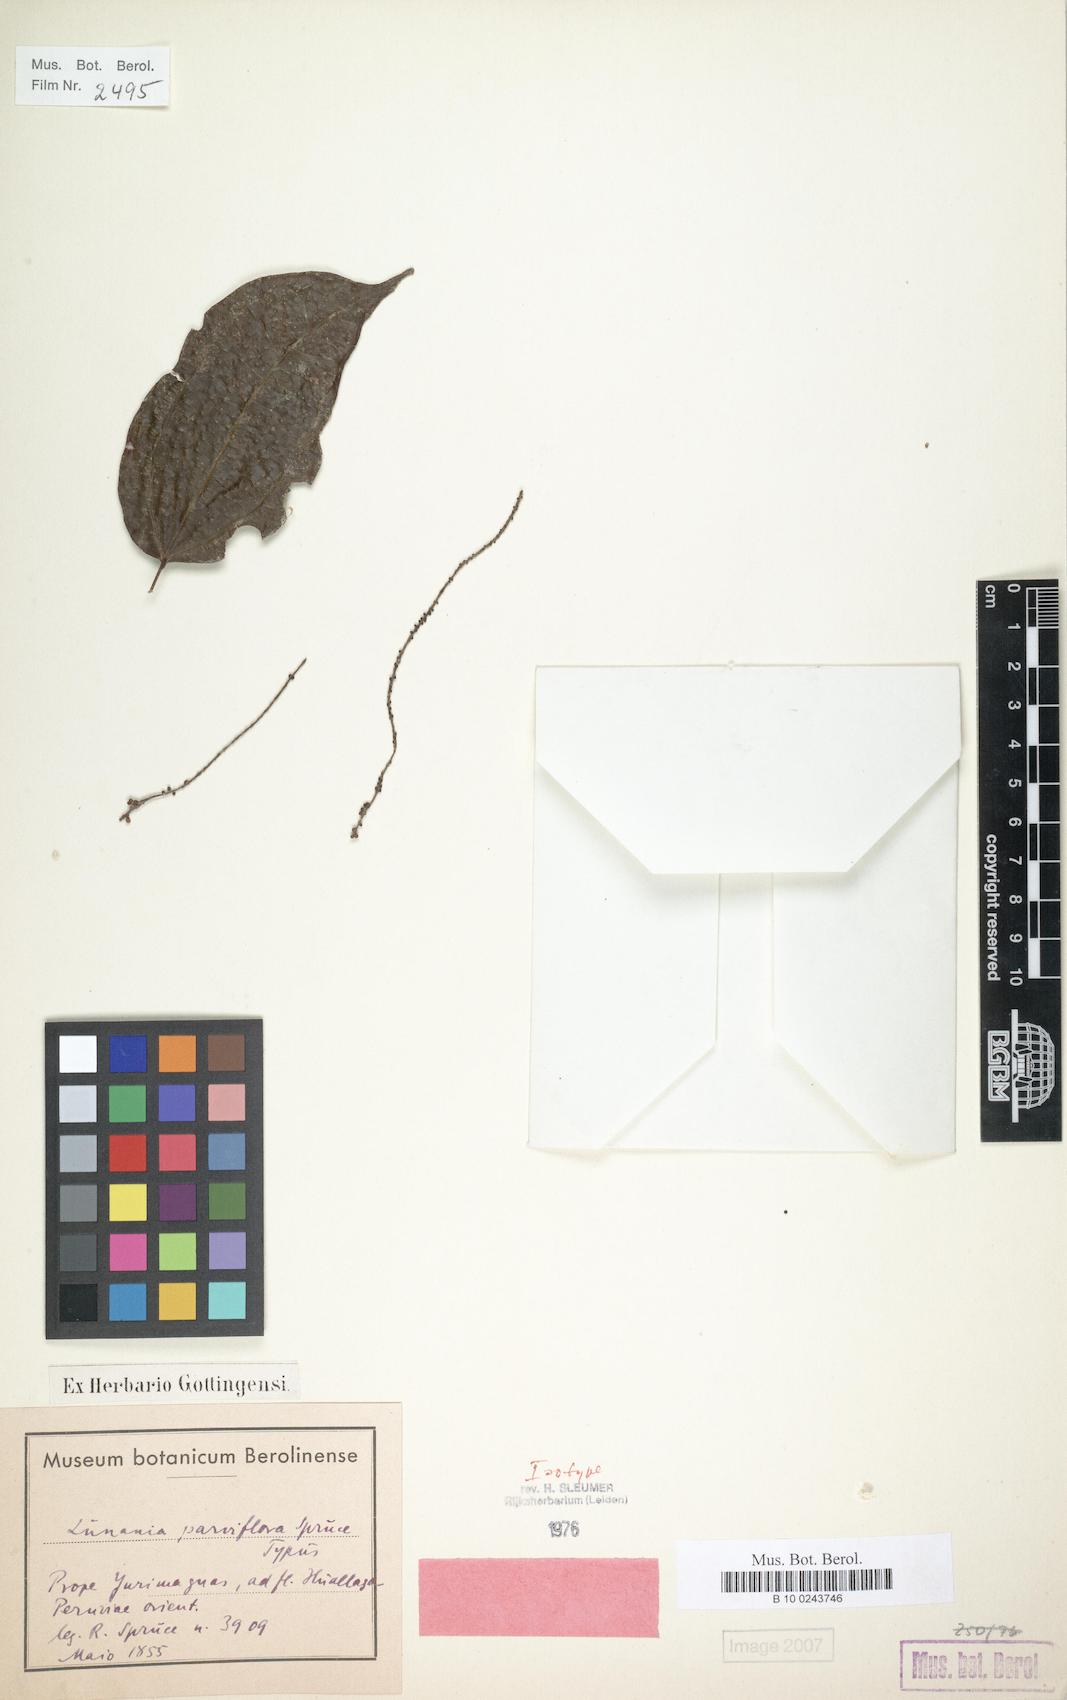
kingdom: Plantae
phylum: Tracheophyta
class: Magnoliopsida
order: Malpighiales
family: Salicaceae
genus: Lunania
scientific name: Lunania parviflora
